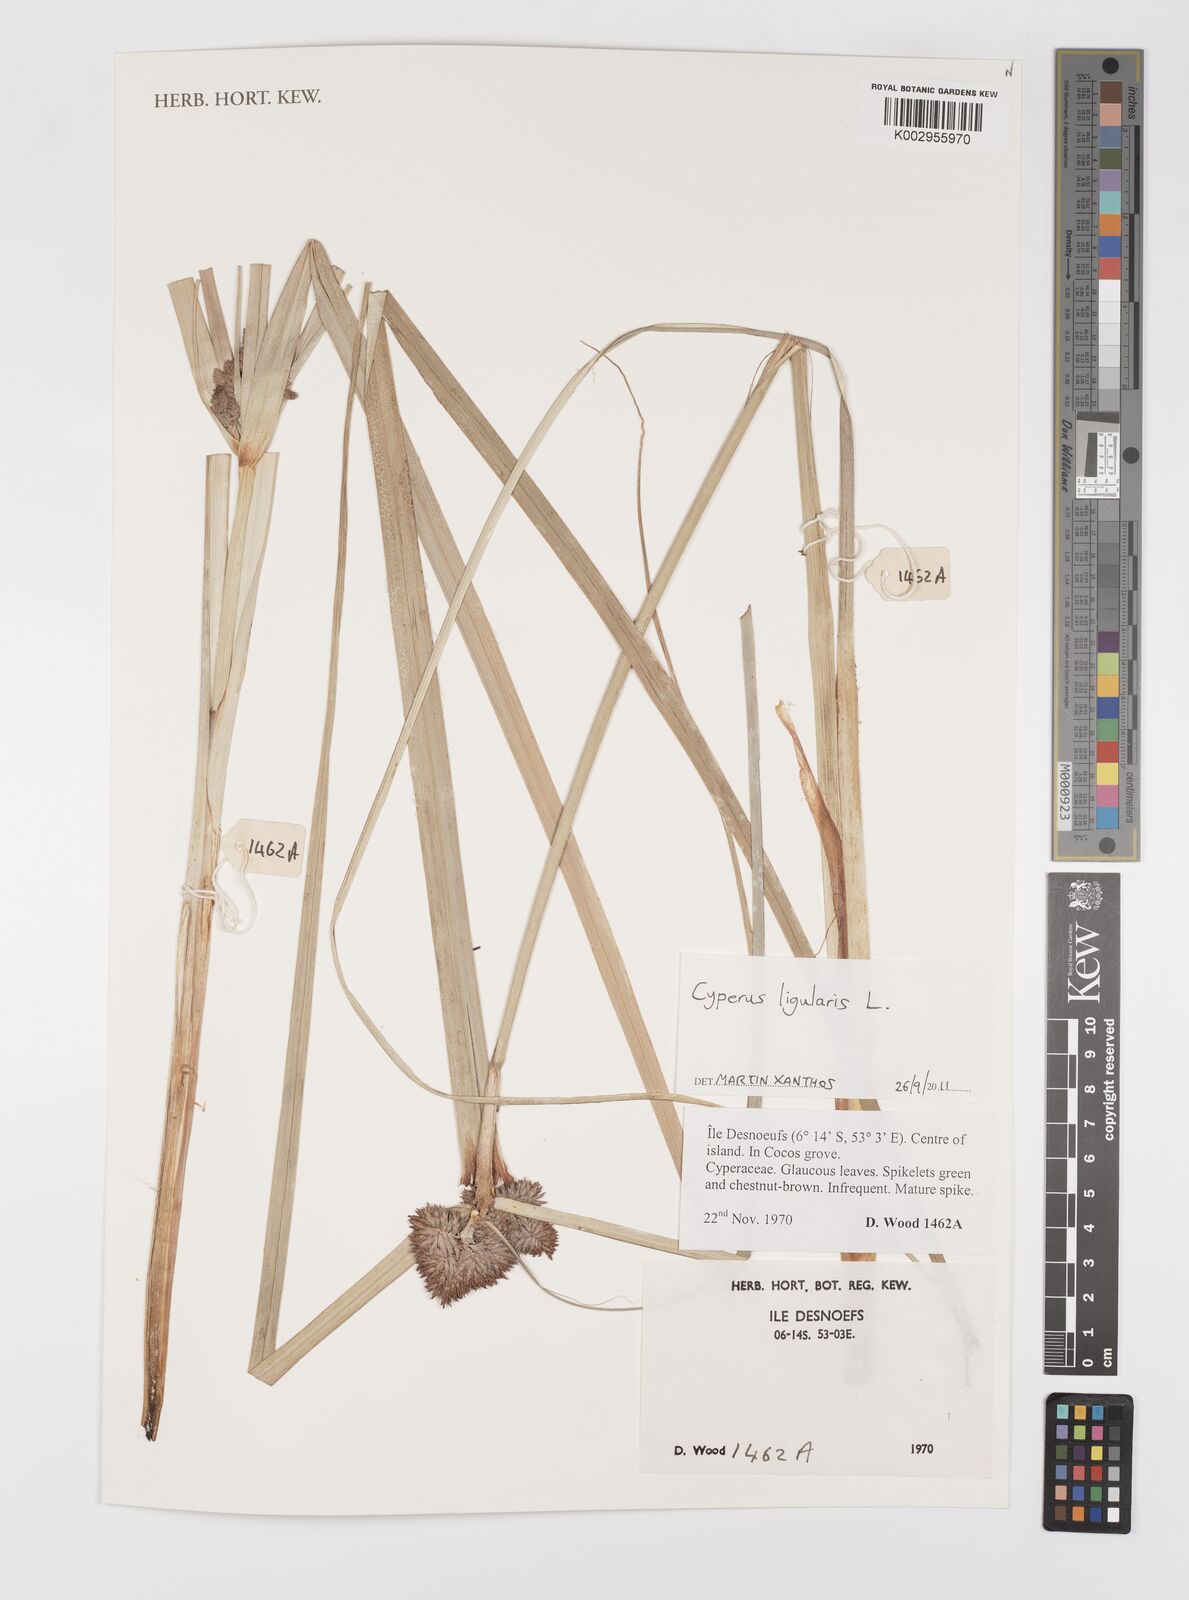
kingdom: Plantae
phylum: Tracheophyta
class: Liliopsida
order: Poales
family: Cyperaceae
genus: Cyperus
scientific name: Cyperus ligularis
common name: Swamp flat sedge
